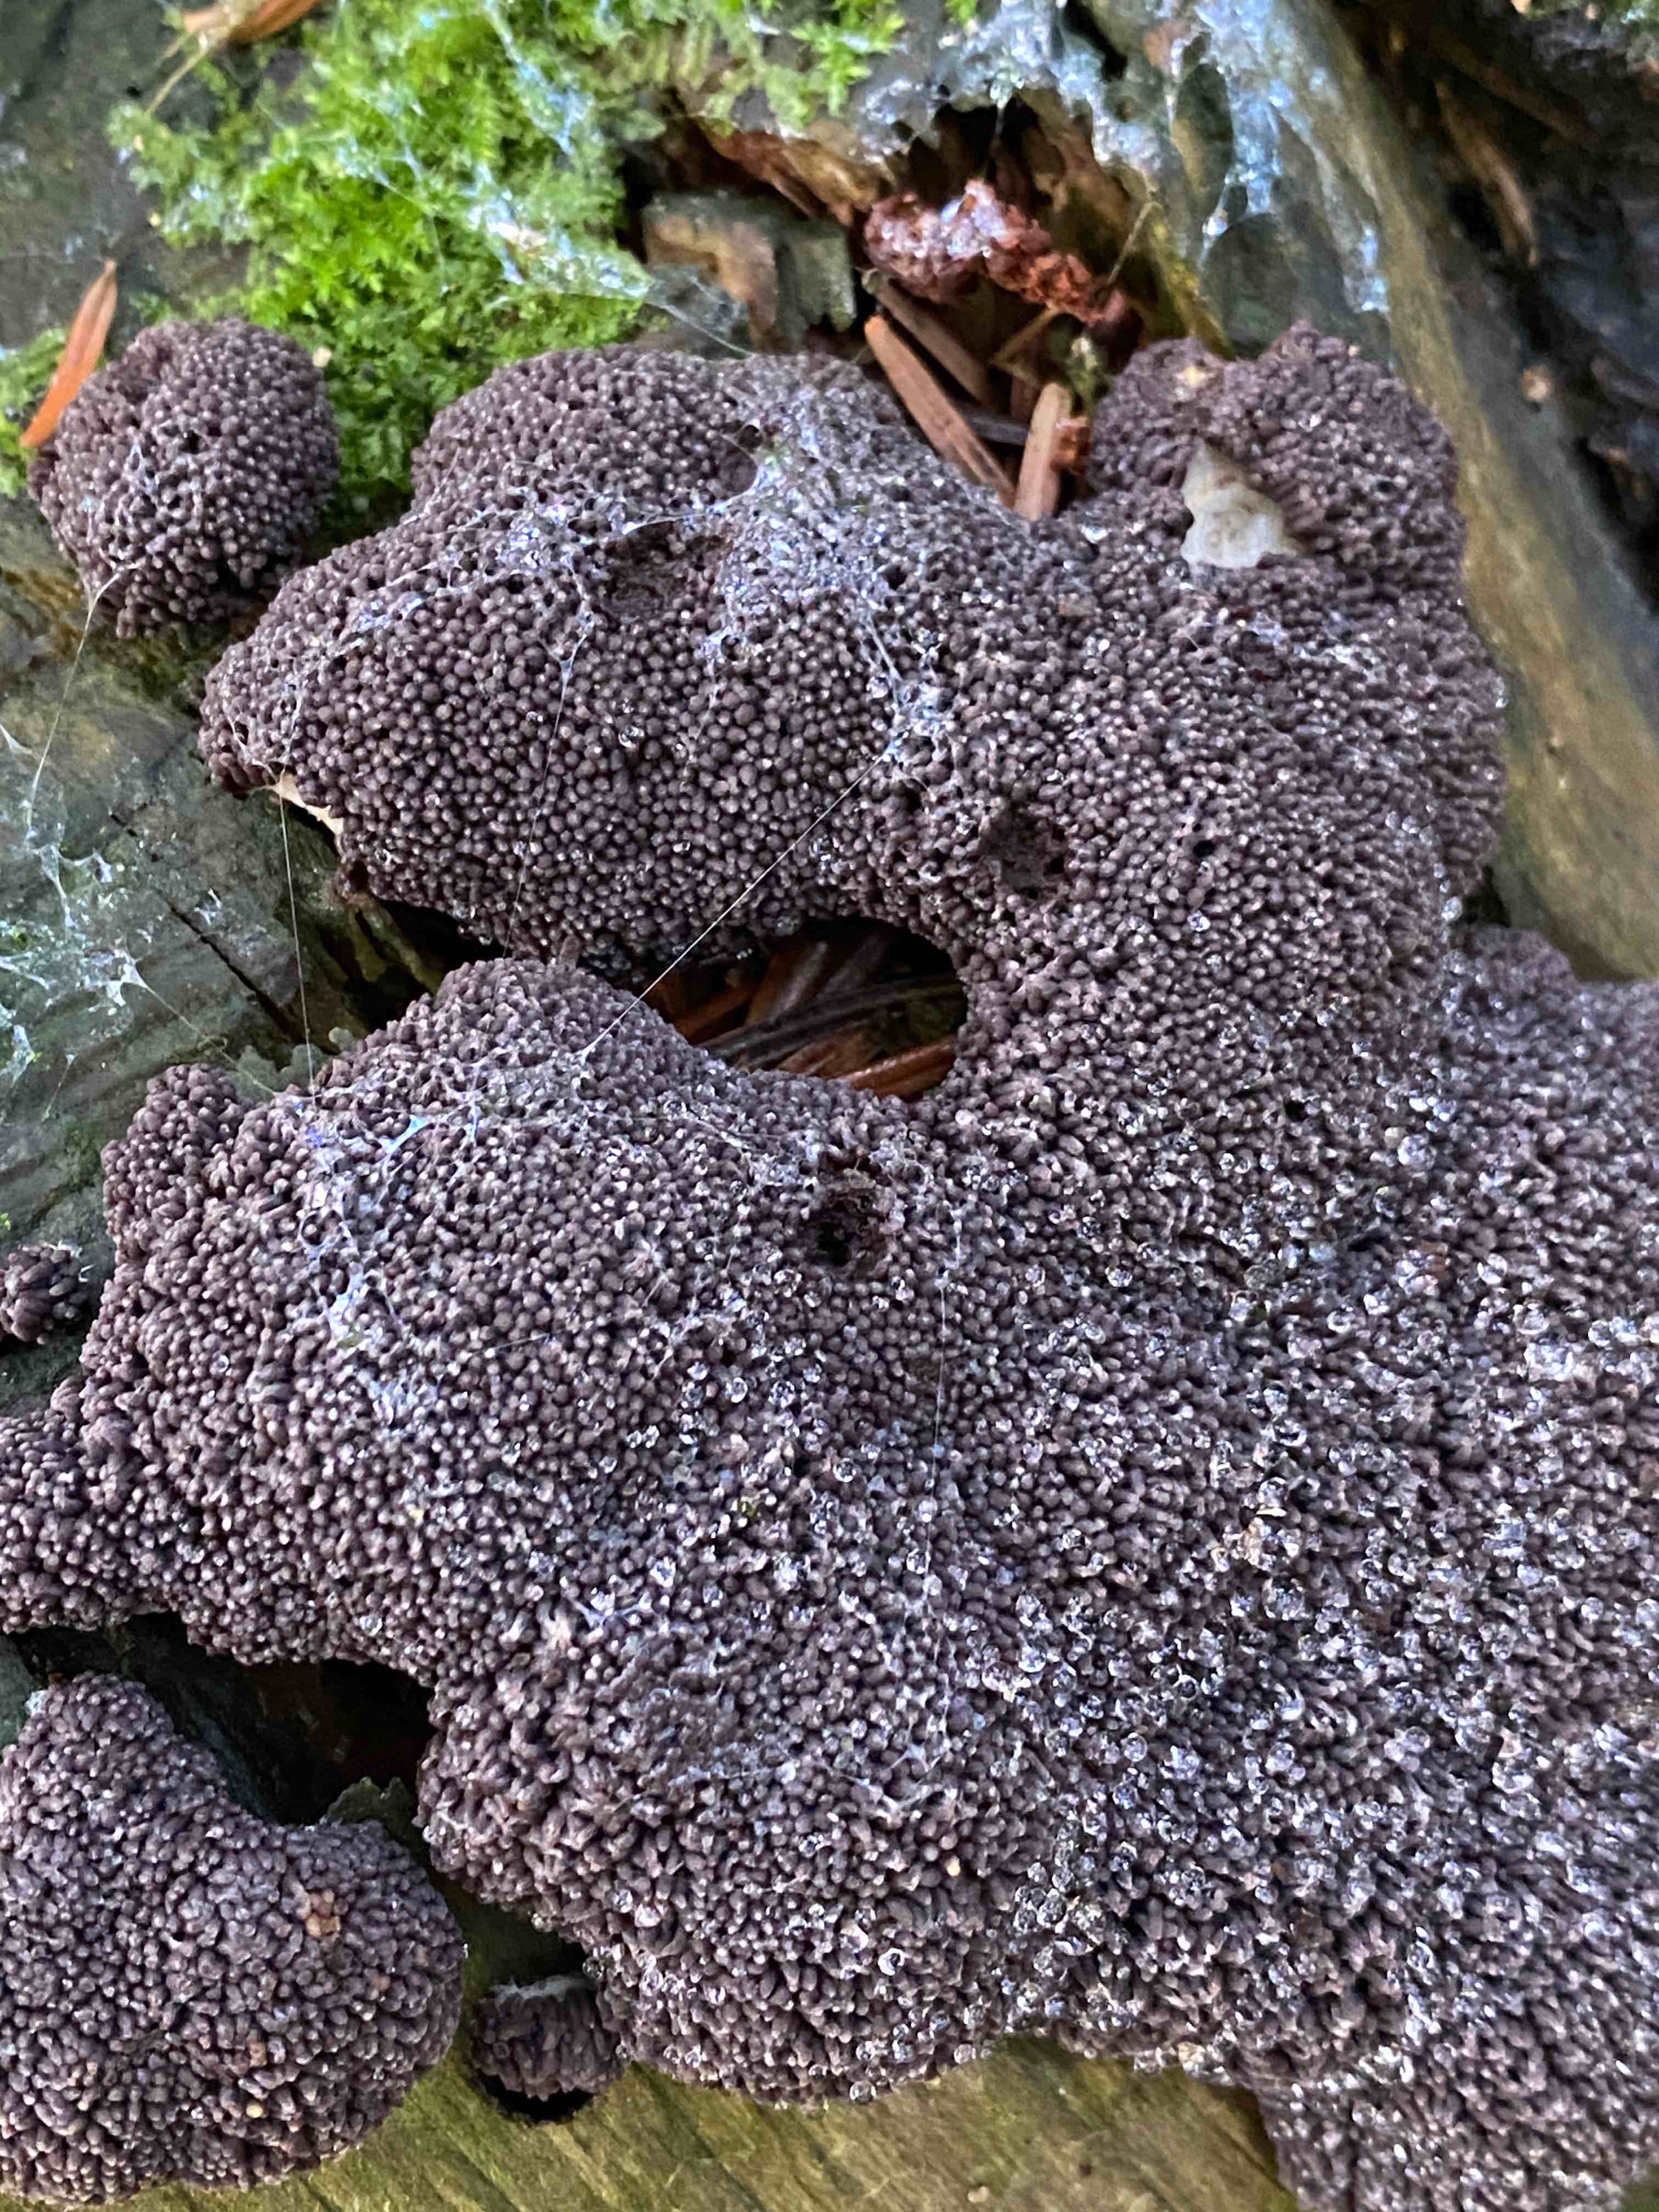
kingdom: Protozoa
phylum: Mycetozoa
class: Myxomycetes
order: Cribrariales
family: Tubiferaceae
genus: Tubifera
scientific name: Tubifera ferruginosa
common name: kanel-støvrør
